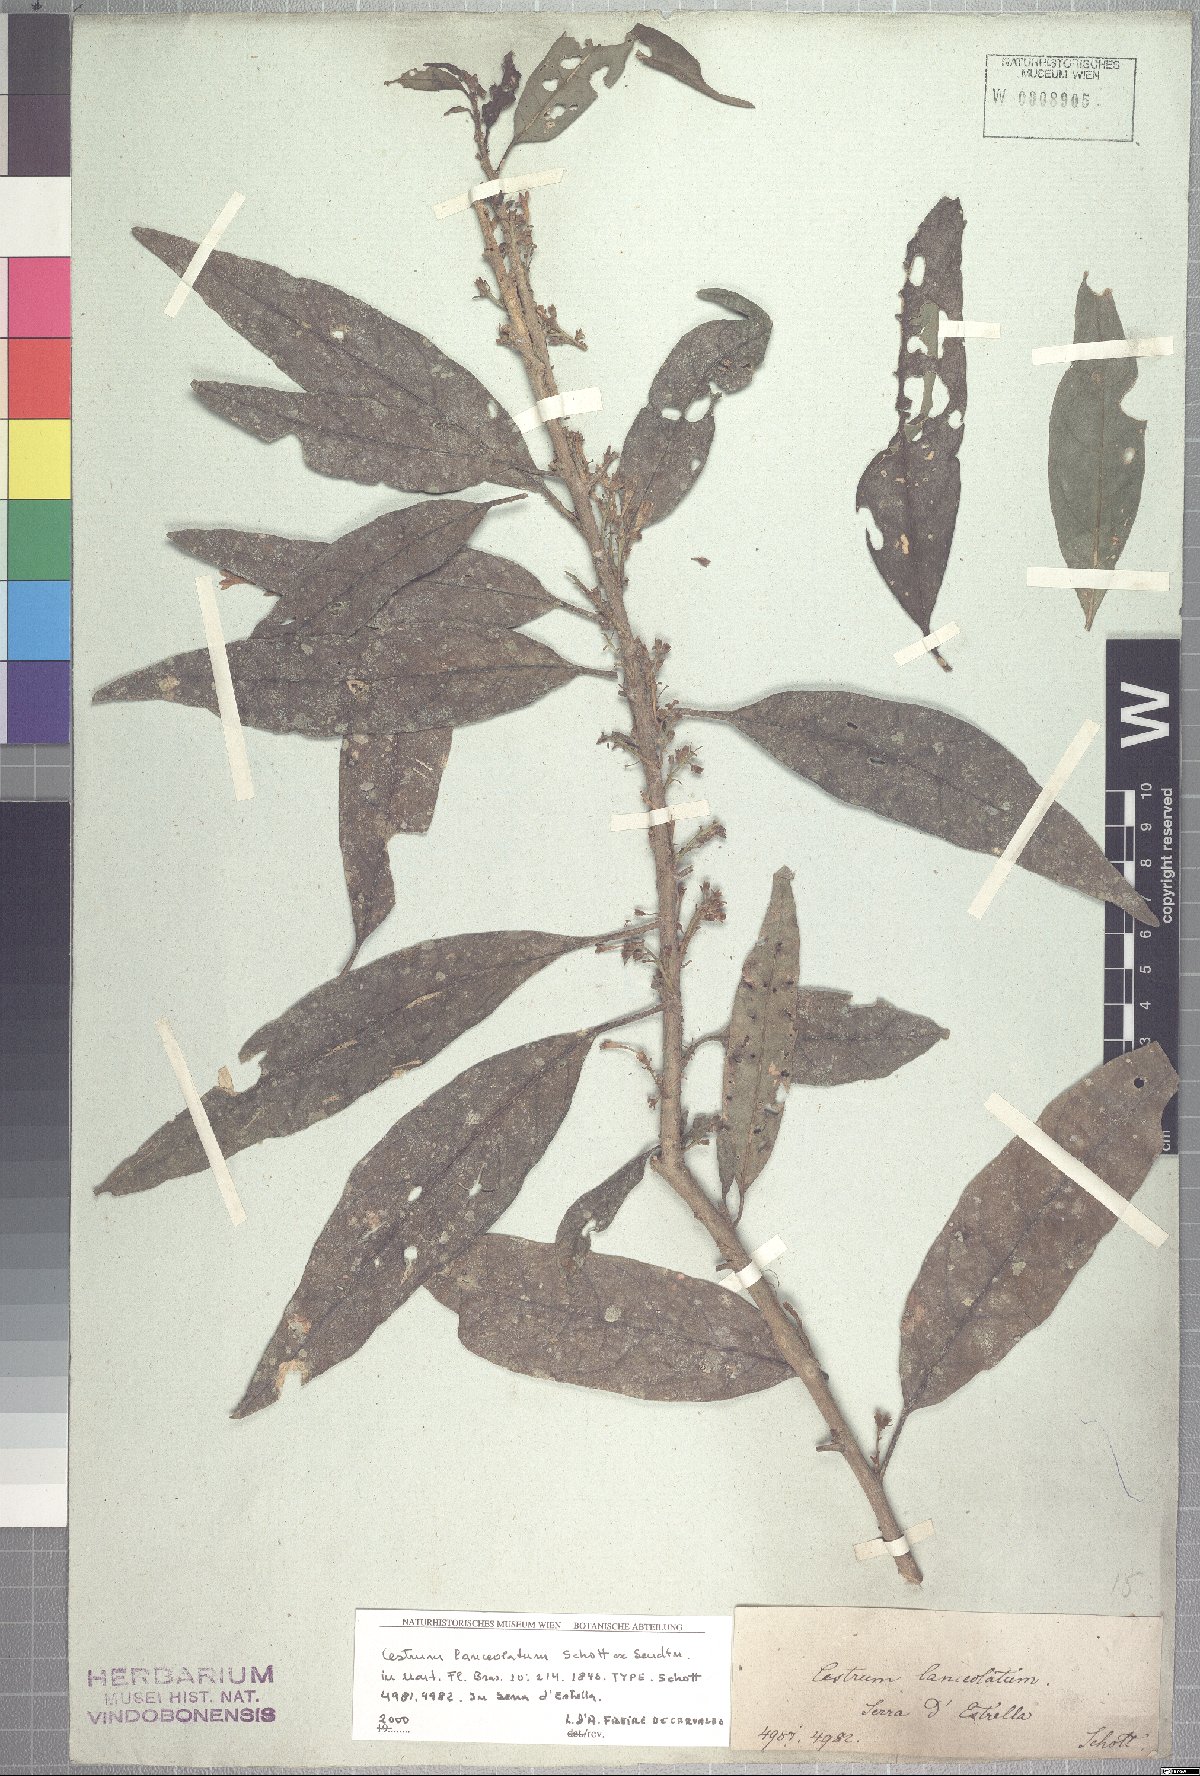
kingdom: Plantae
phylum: Tracheophyta
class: Magnoliopsida
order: Solanales
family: Solanaceae
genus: Cestrum
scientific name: Cestrum bracteatum
